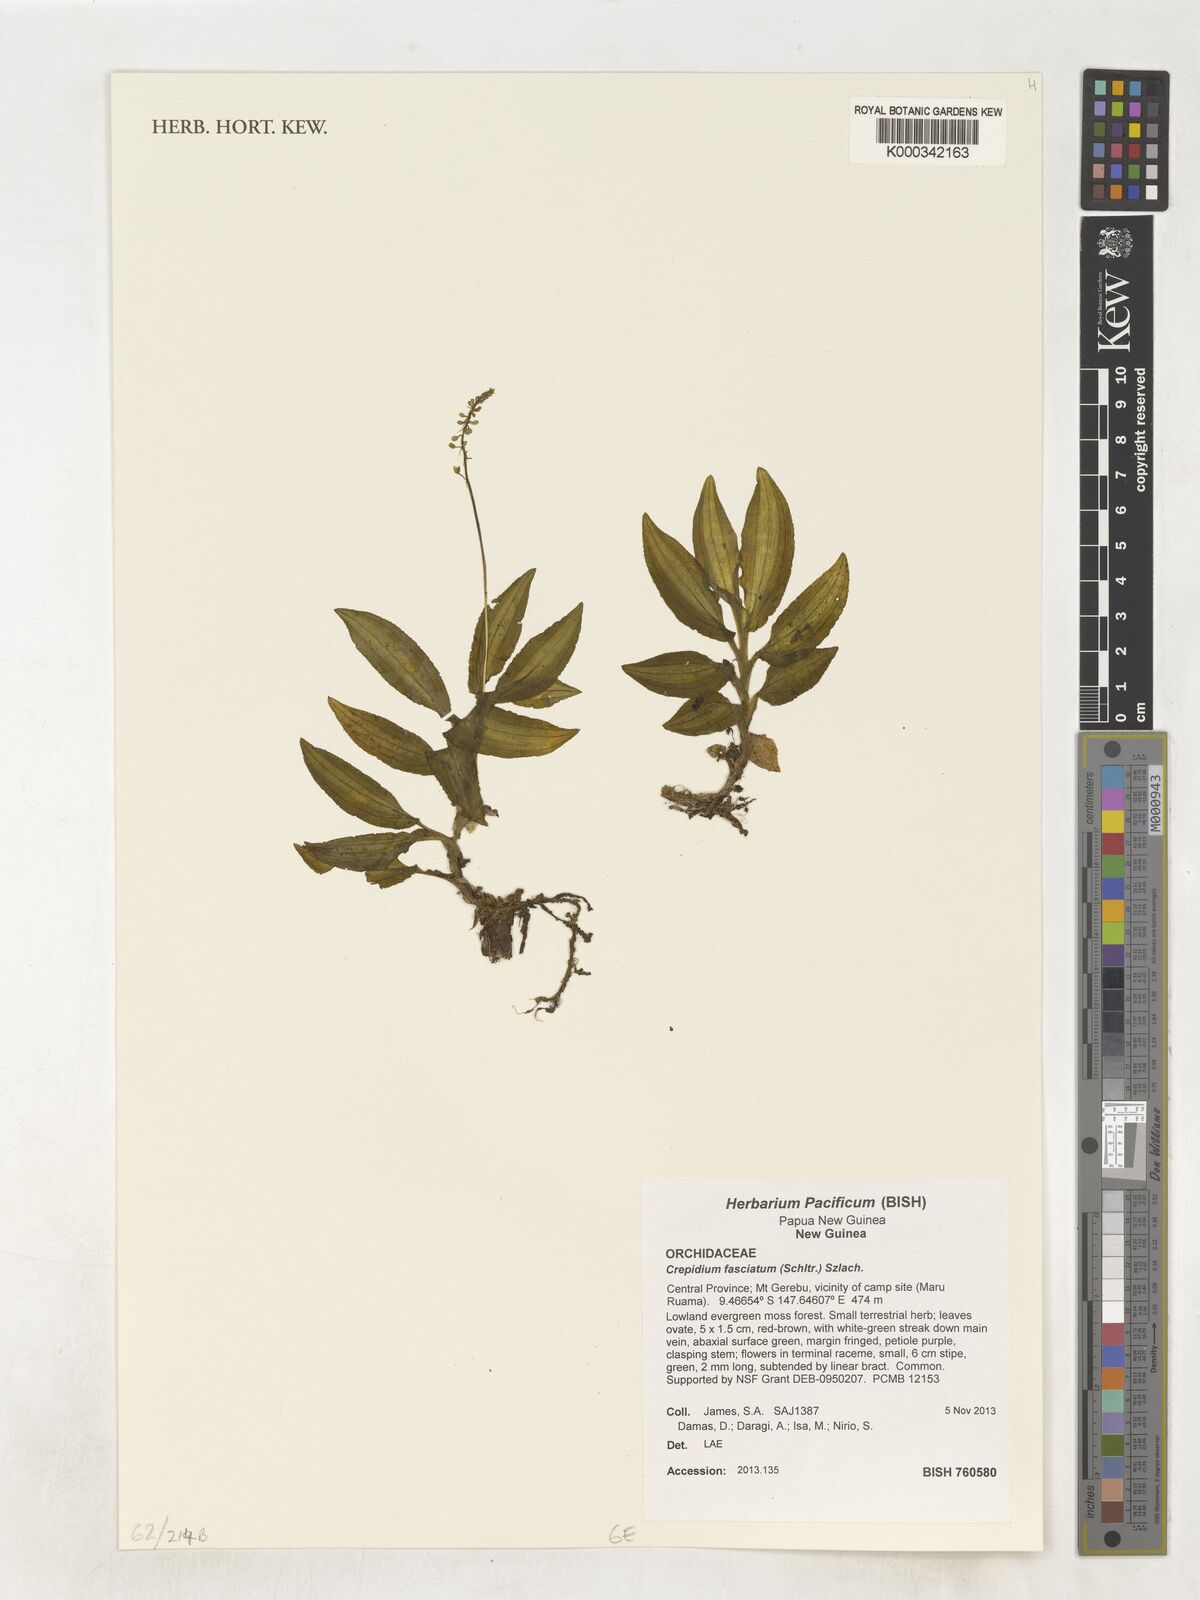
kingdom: Plantae
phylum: Tracheophyta
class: Liliopsida
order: Asparagales
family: Orchidaceae
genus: Crepidium
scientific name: Crepidium fasciatum
